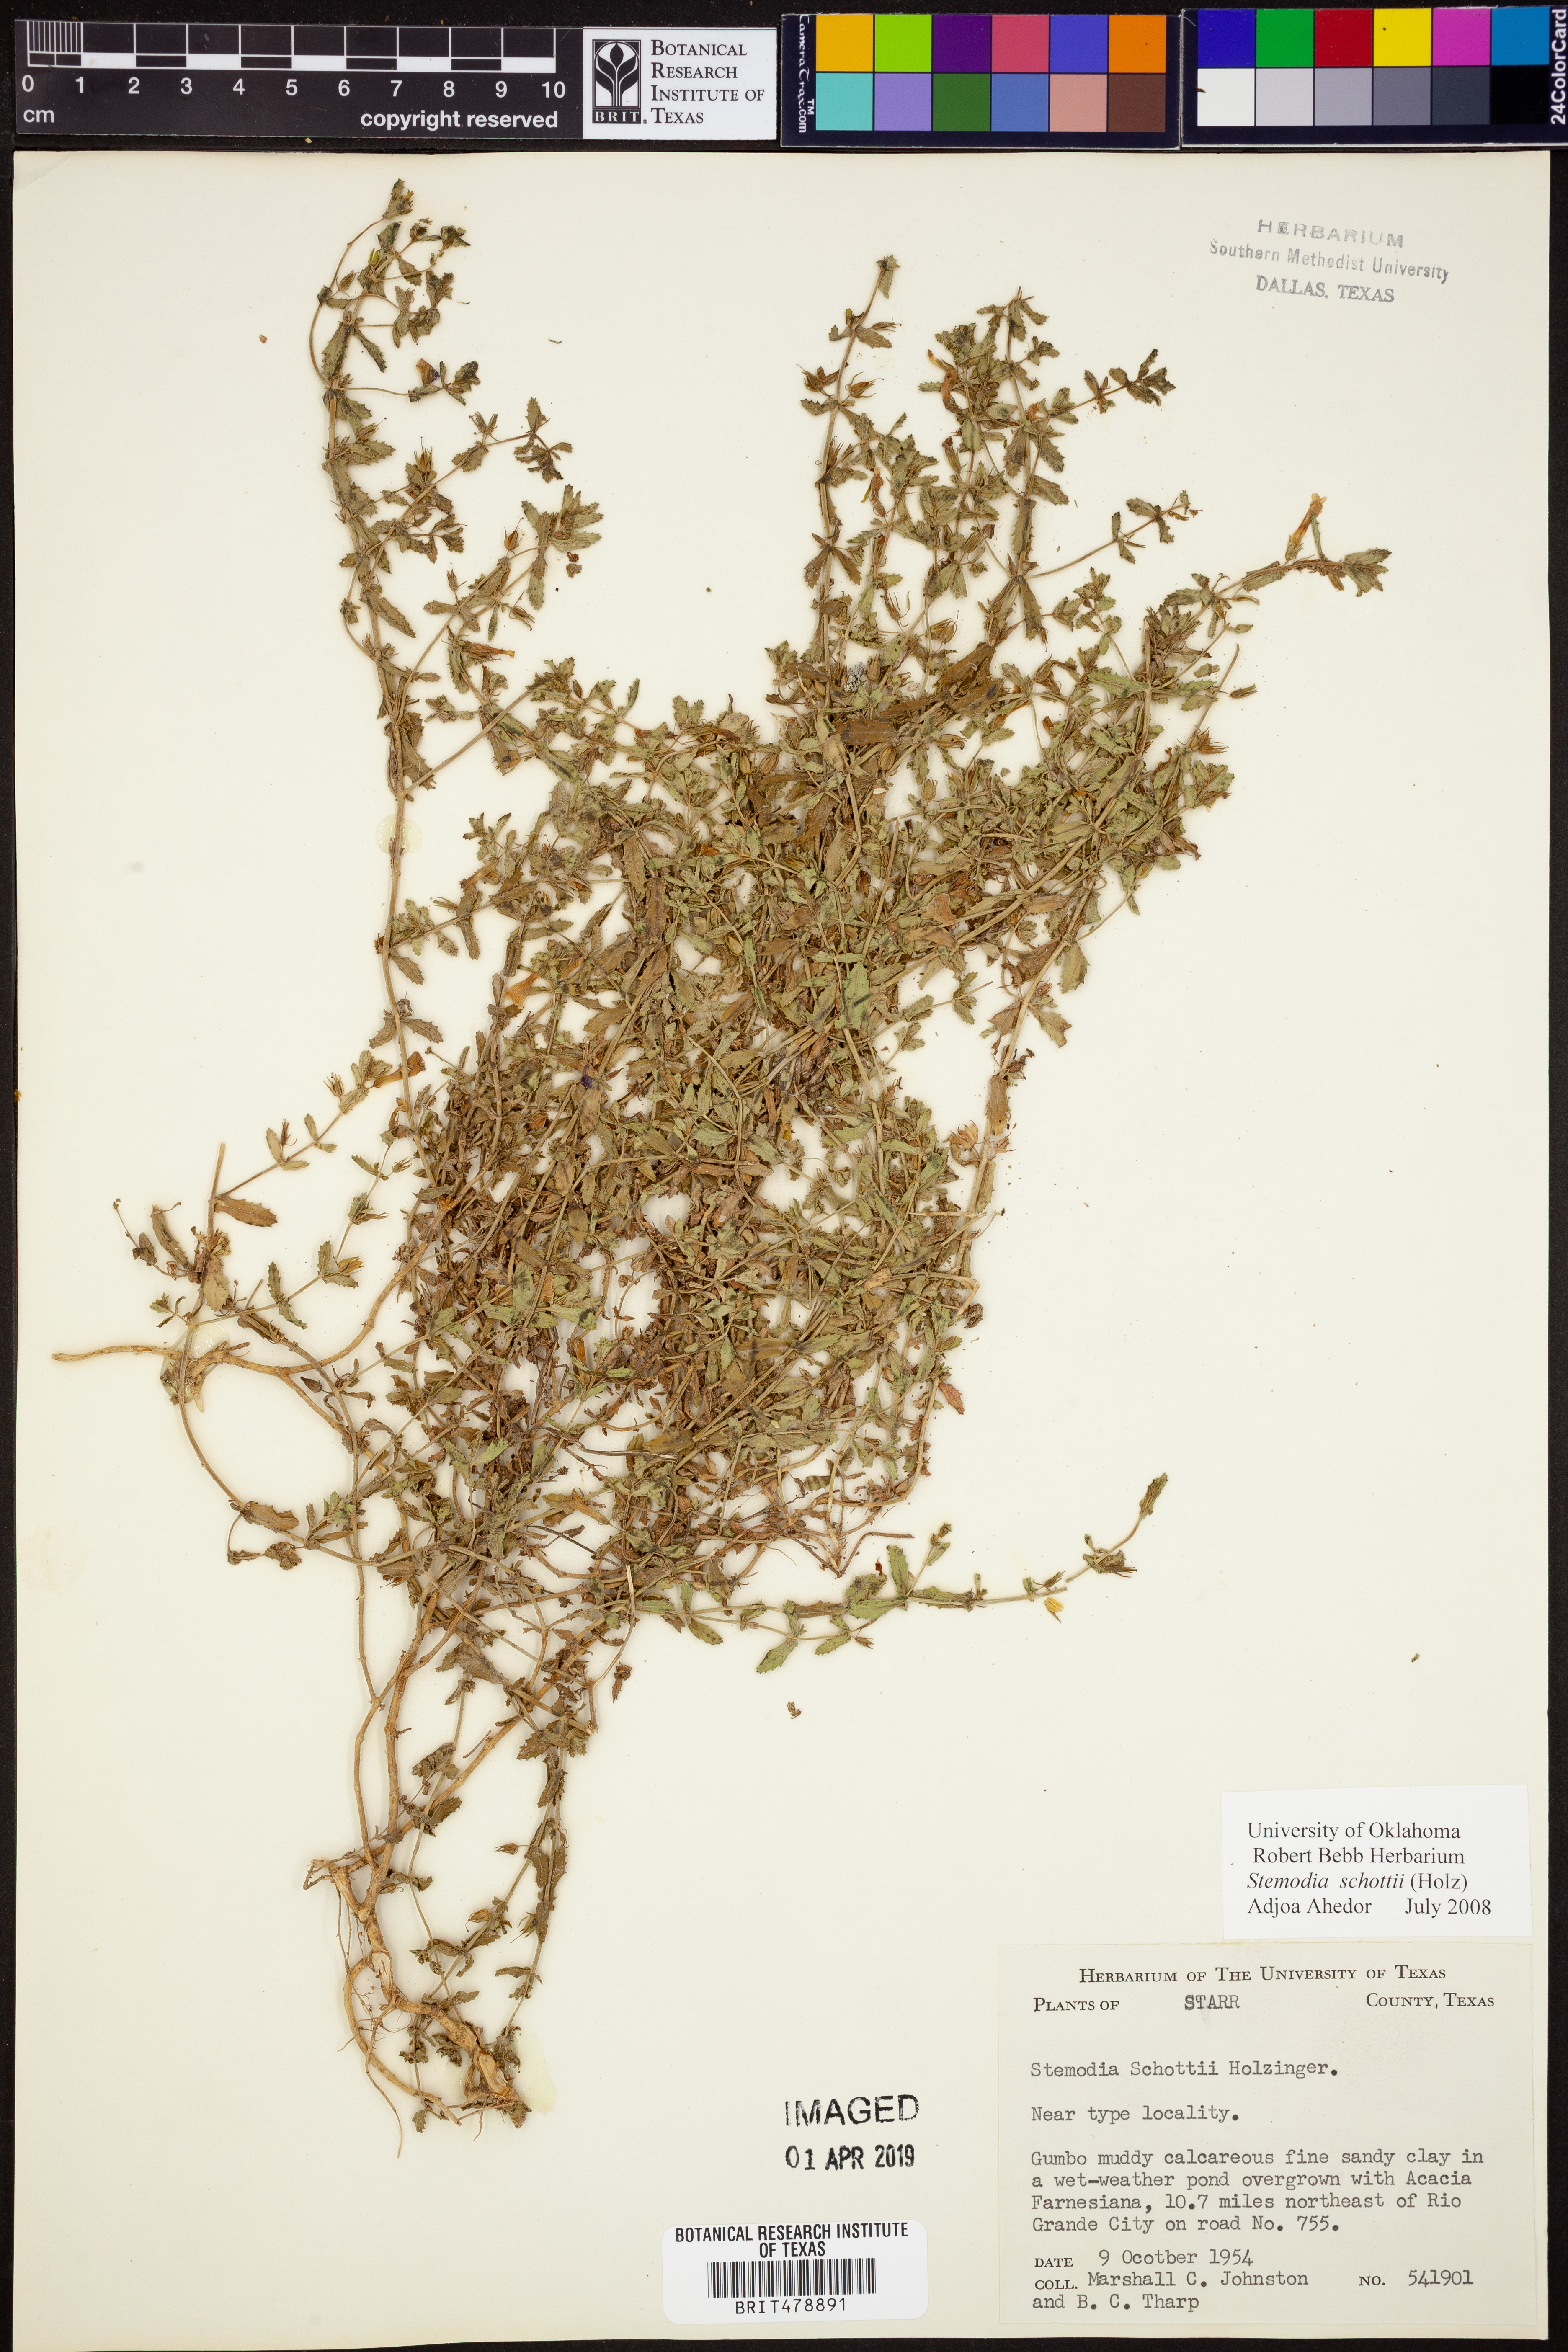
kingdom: Plantae
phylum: Tracheophyta
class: Magnoliopsida
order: Lamiales
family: Plantaginaceae
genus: Stemodia
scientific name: Stemodia schottii
